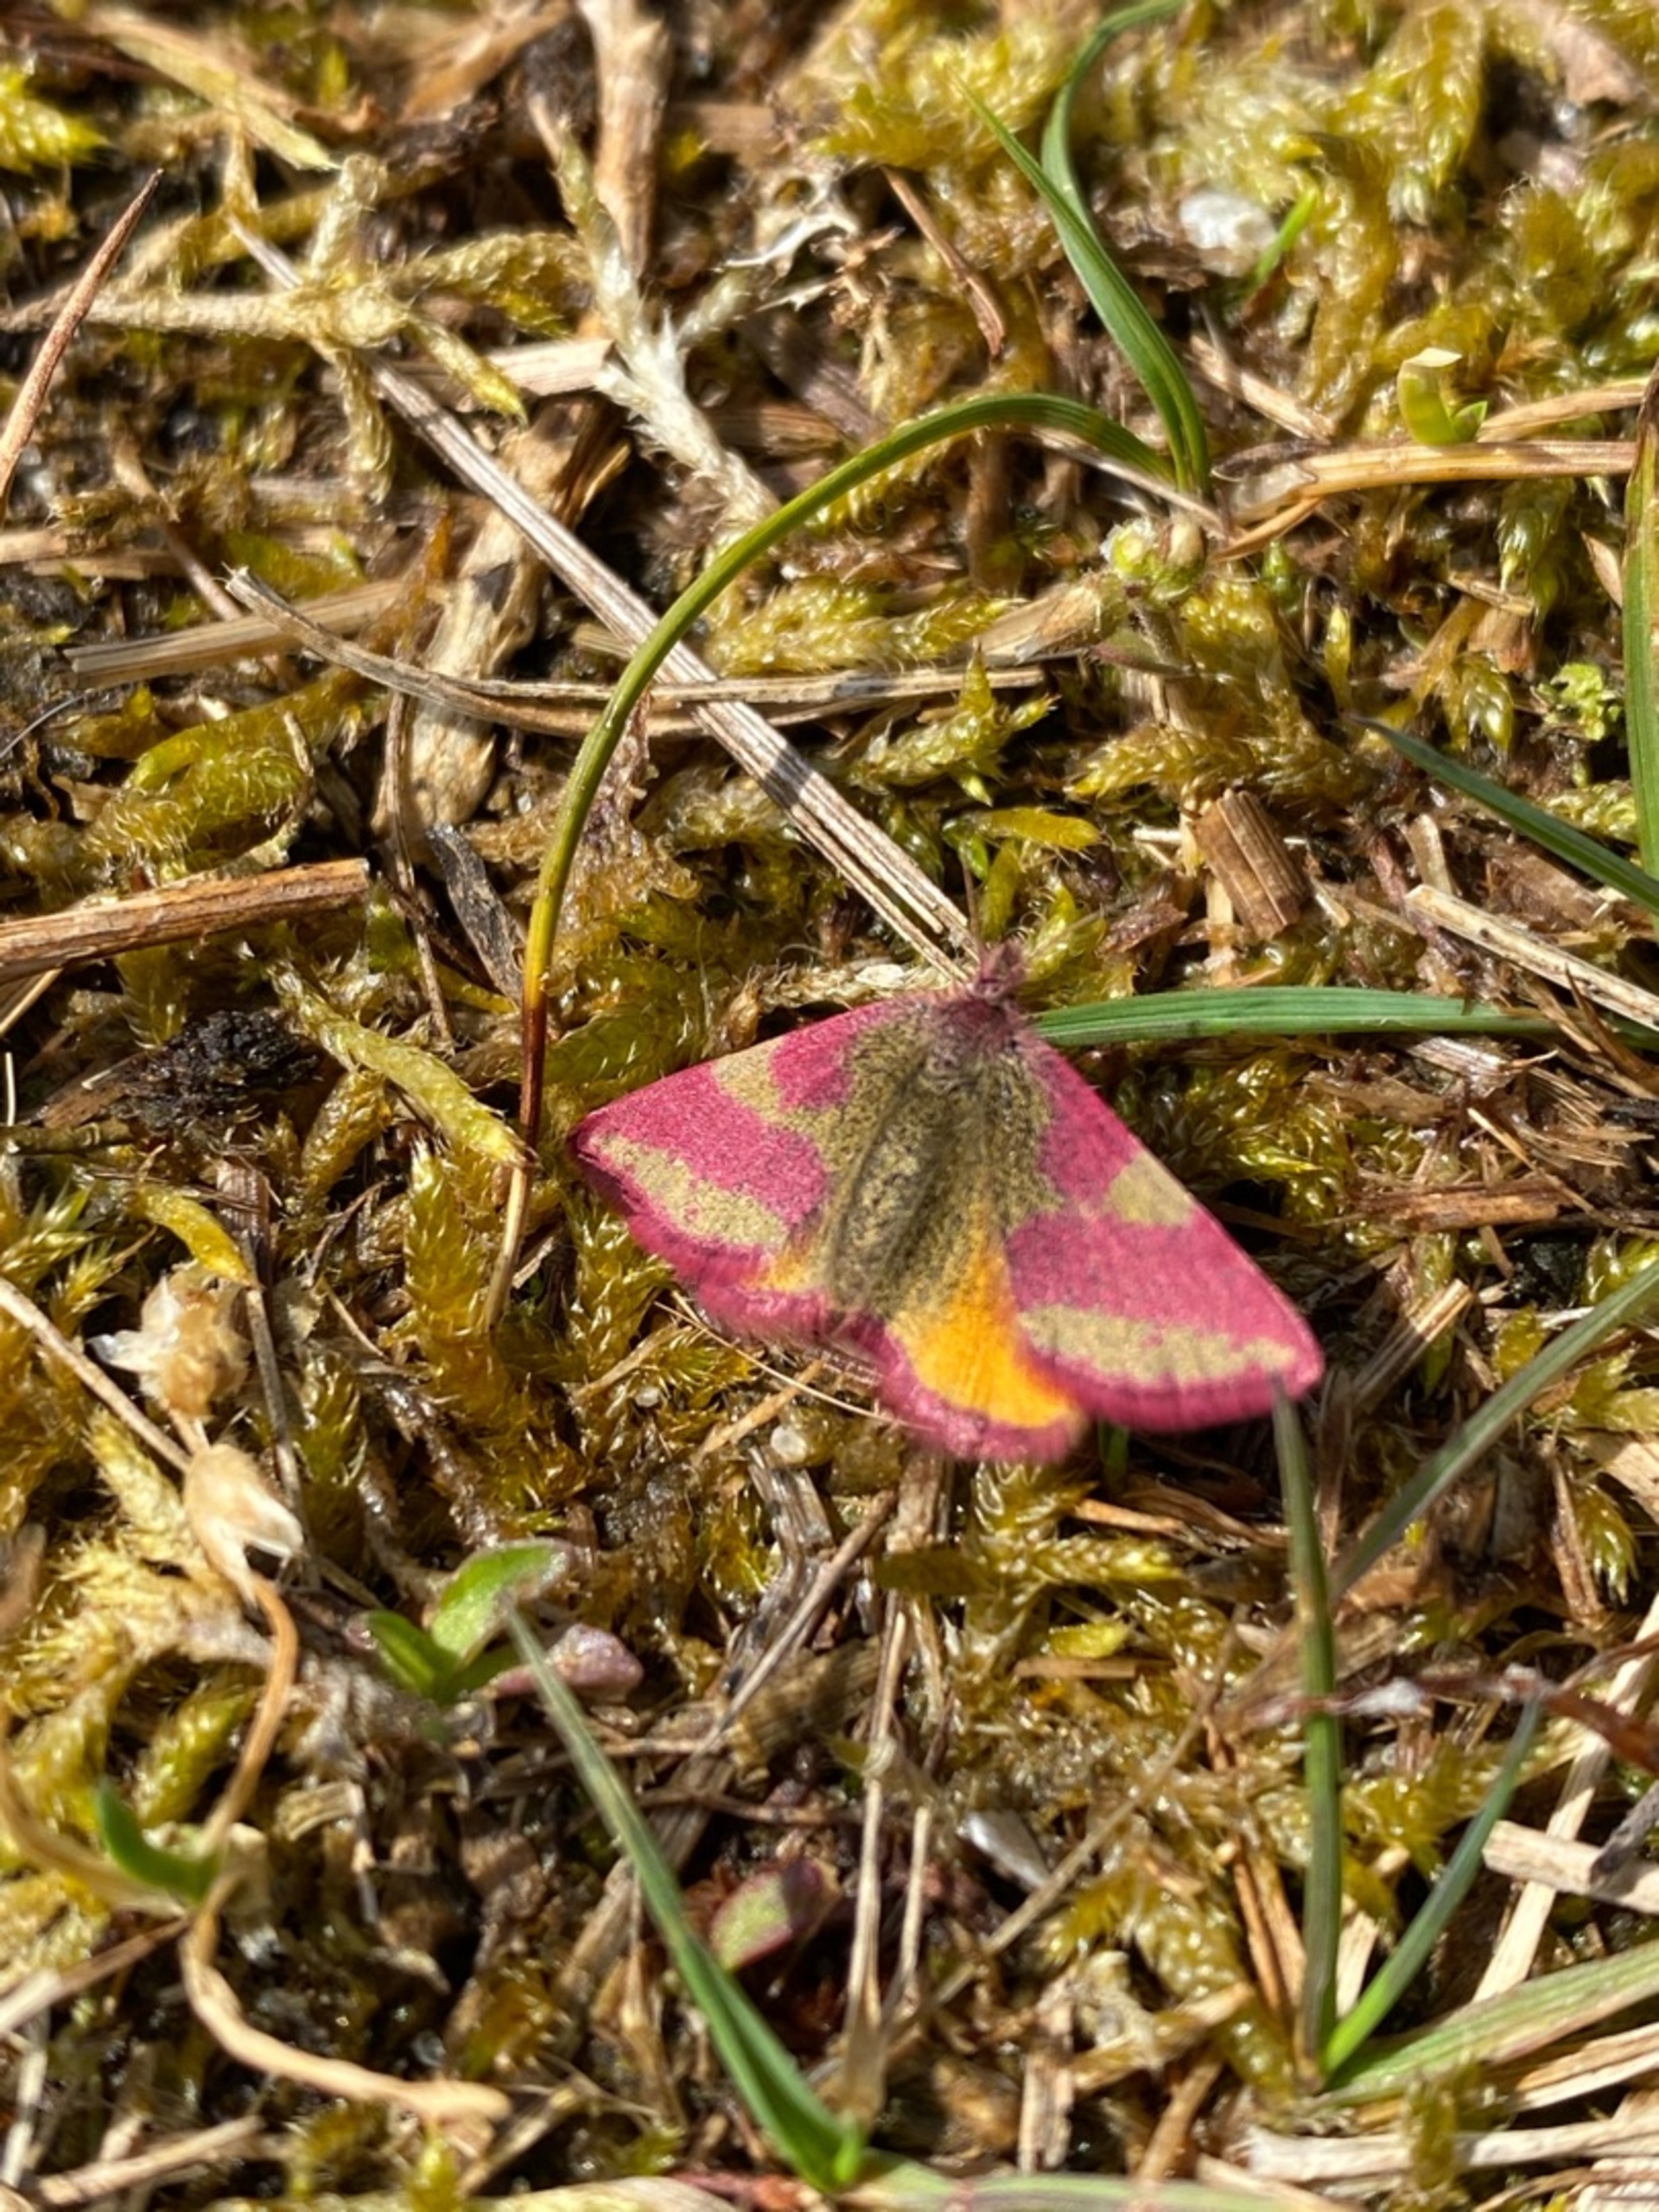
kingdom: Animalia
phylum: Arthropoda
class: Insecta
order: Lepidoptera
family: Geometridae
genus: Lythria
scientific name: Lythria cruentaria
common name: Purpurmåler
